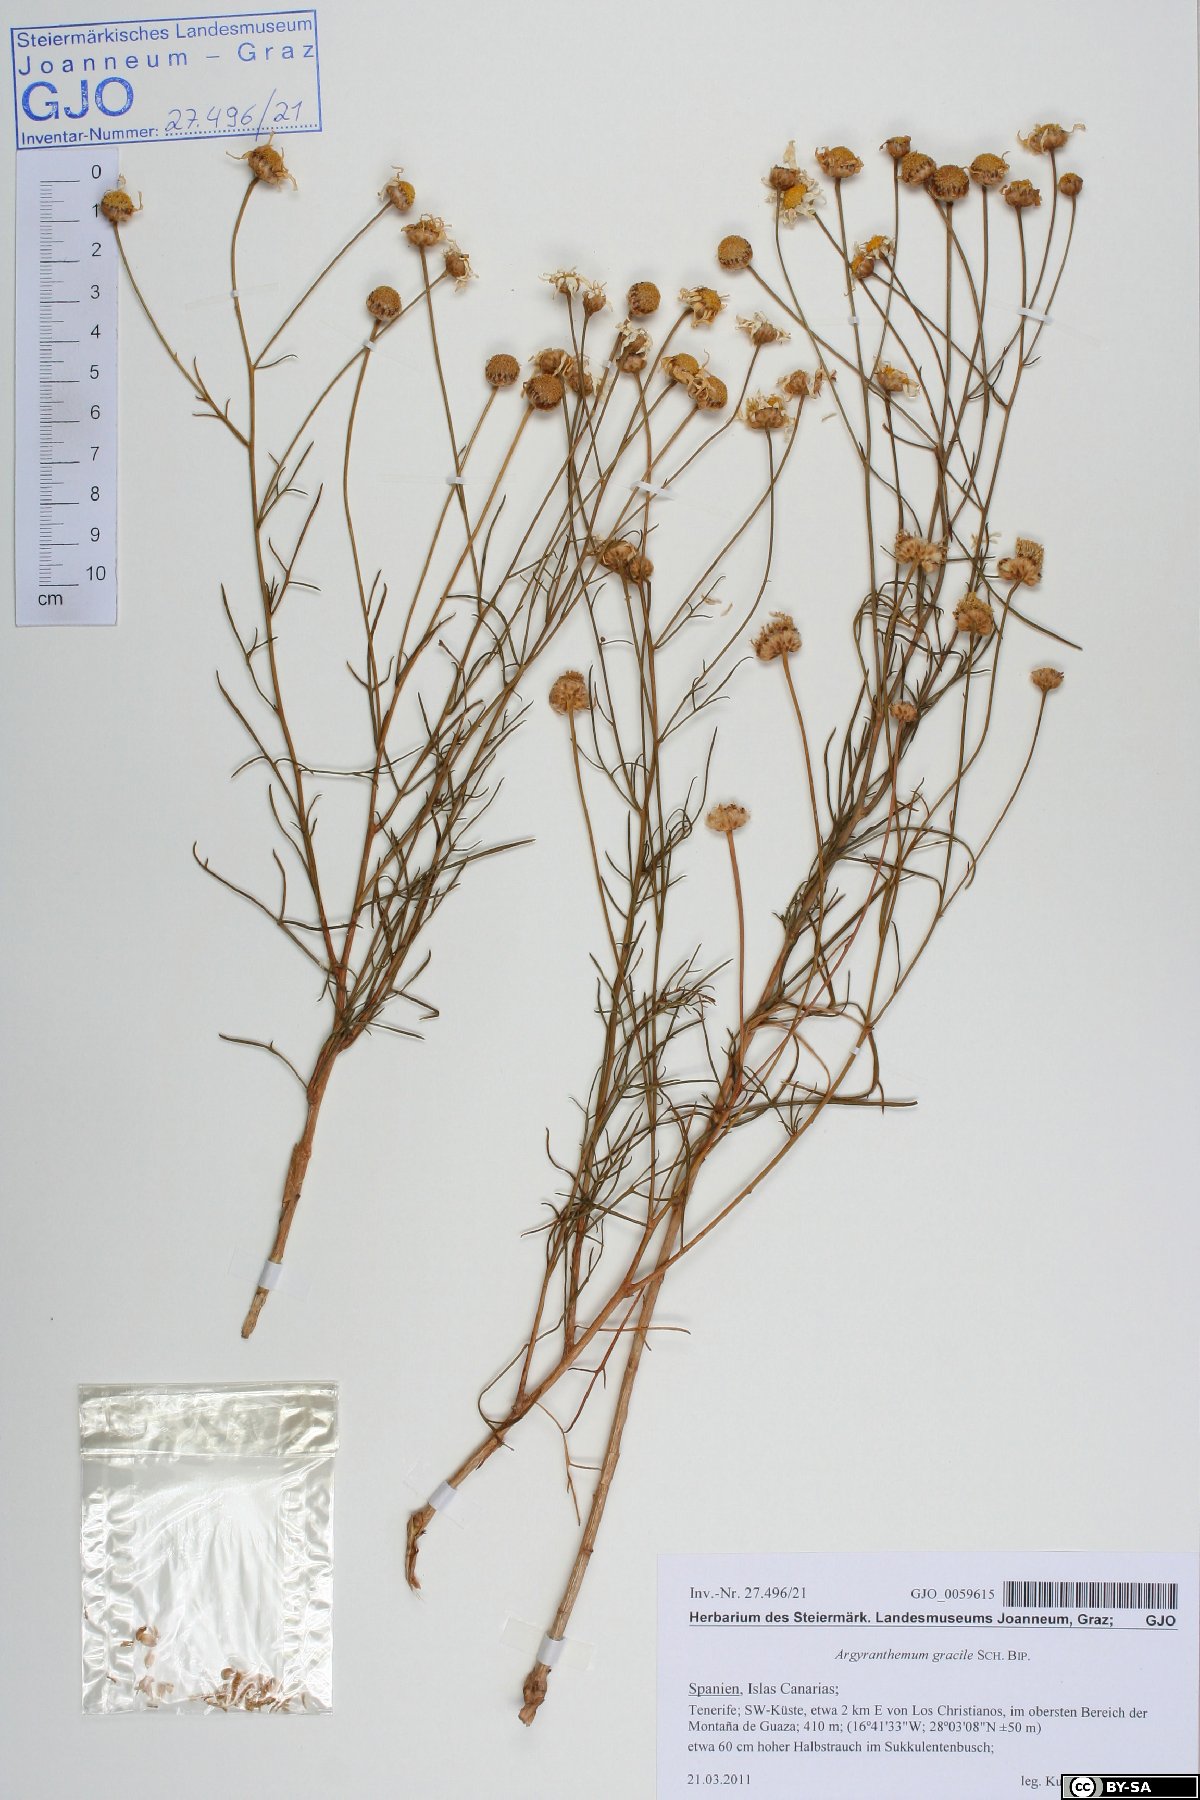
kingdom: Plantae
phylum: Tracheophyta
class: Magnoliopsida
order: Asterales
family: Asteraceae
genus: Argyranthemum
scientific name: Argyranthemum gracile
